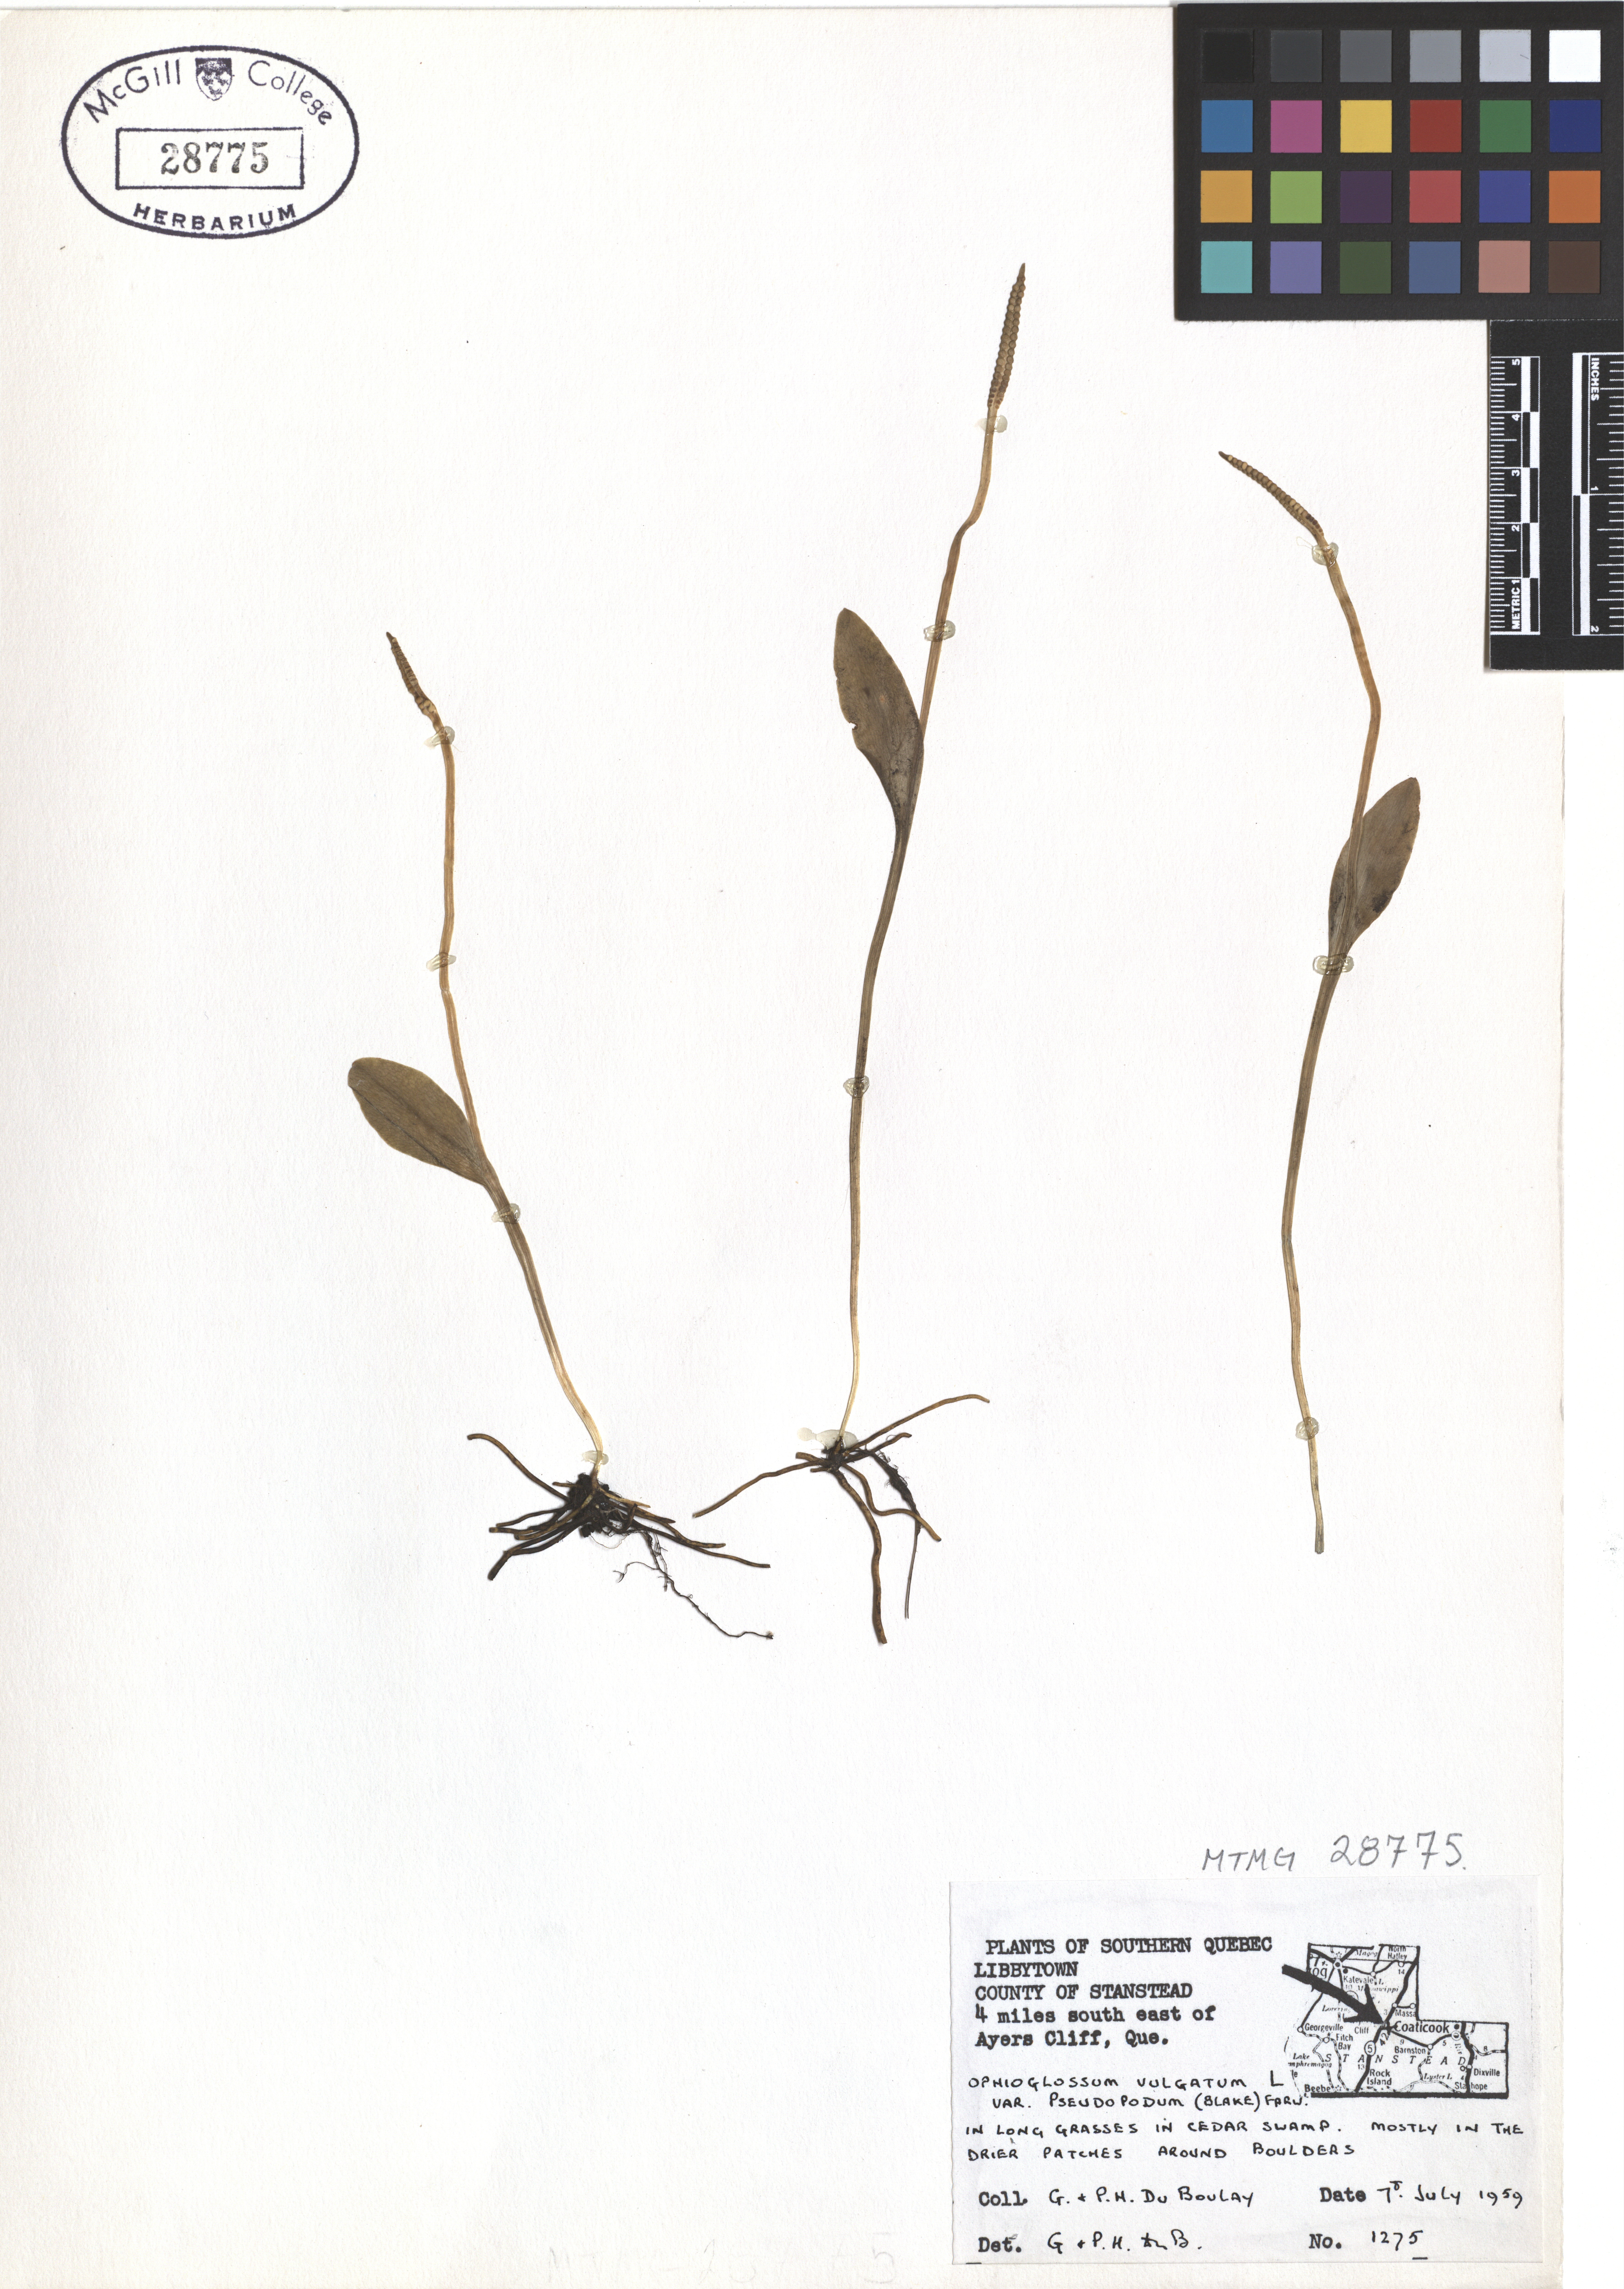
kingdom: Plantae
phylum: Tracheophyta
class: Polypodiopsida
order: Ophioglossales
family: Ophioglossaceae
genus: Ophioglossum
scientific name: Ophioglossum pusillum
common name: Northern adder's-tongue
